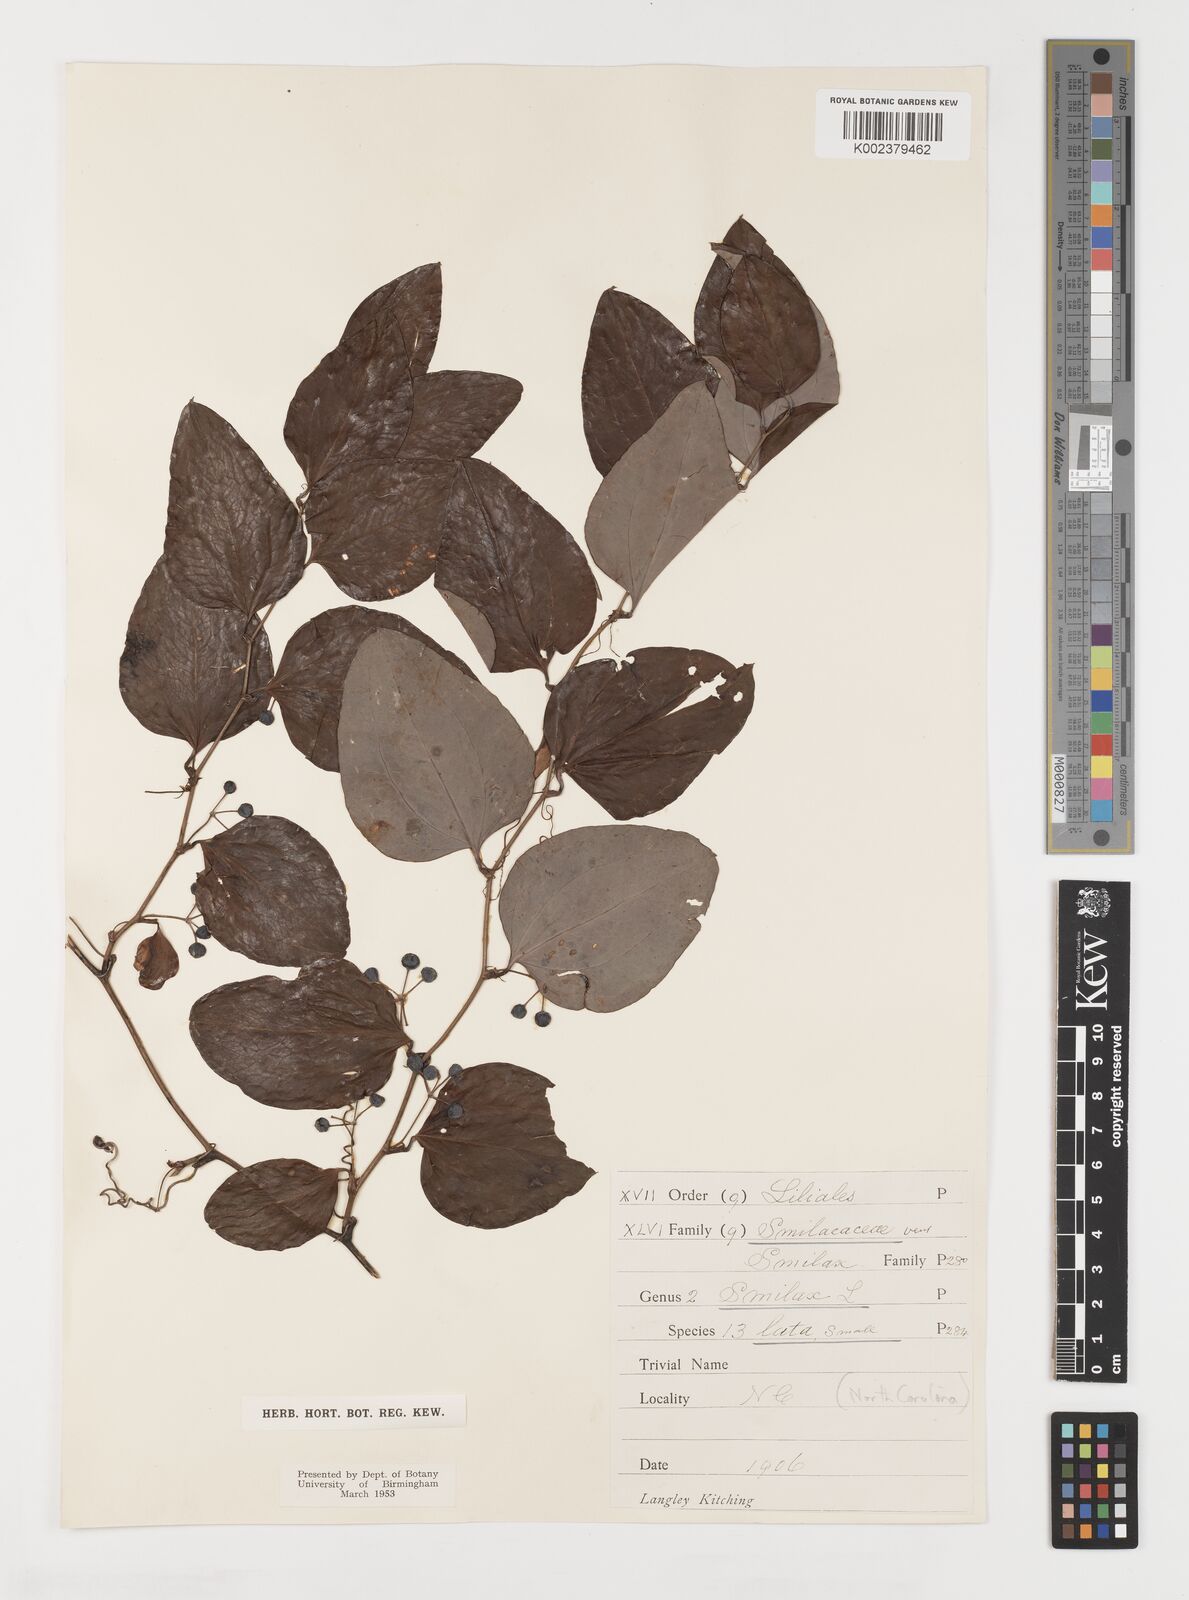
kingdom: Plantae
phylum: Tracheophyta
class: Liliopsida
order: Liliales
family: Smilacaceae
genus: Smilax
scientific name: Smilax auriculata
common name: Wild bamboo
